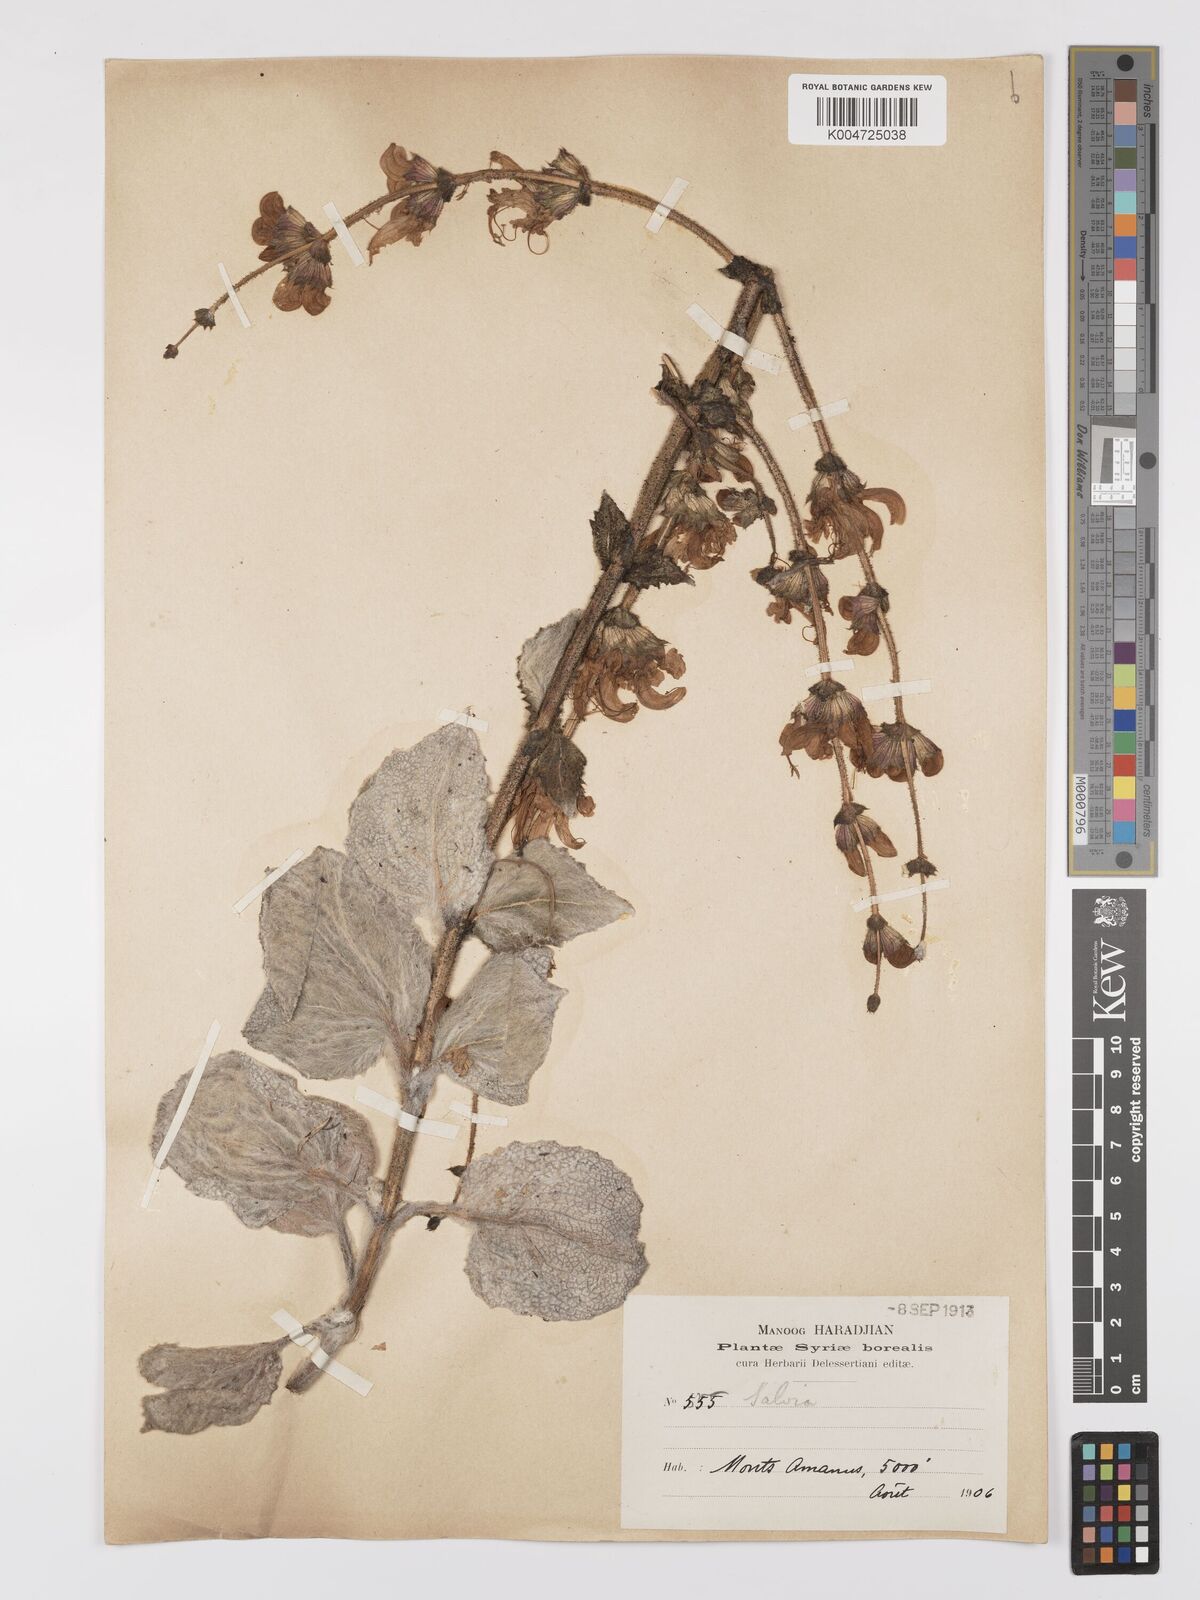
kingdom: Plantae
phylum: Tracheophyta
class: Magnoliopsida
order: Lamiales
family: Lamiaceae
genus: Salvia
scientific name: Salvia microstegia
